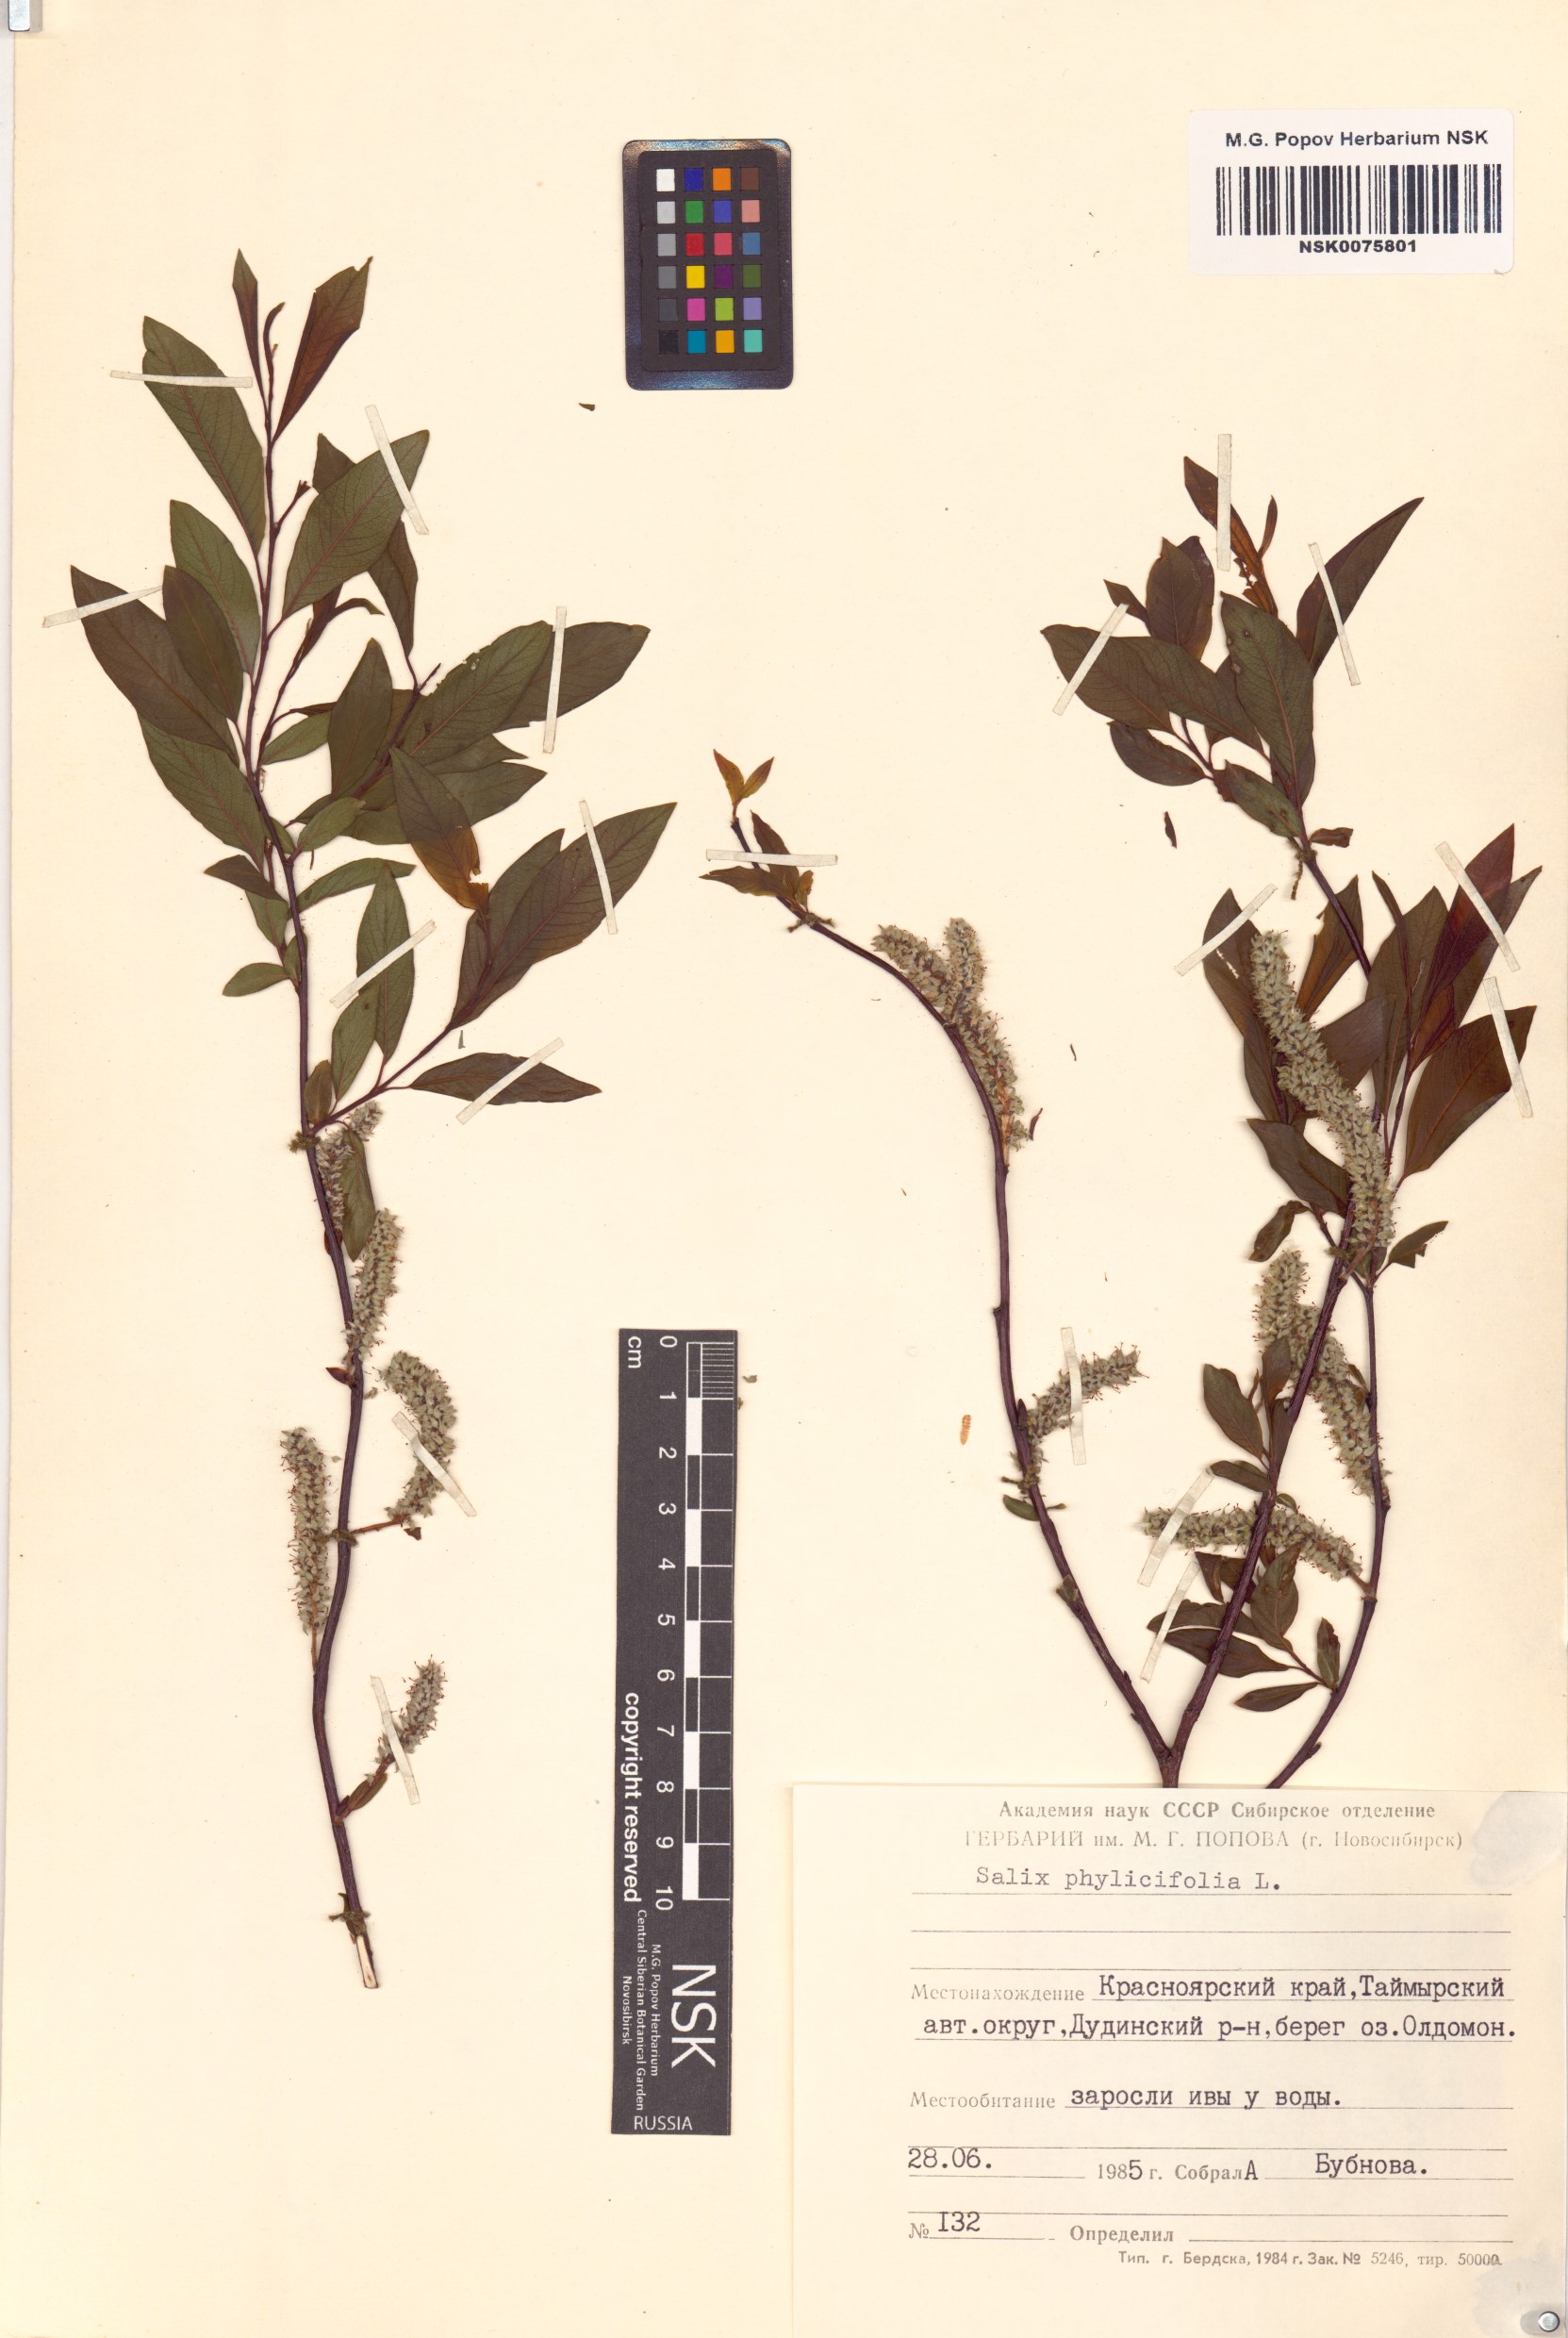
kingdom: Plantae
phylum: Tracheophyta
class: Magnoliopsida
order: Malpighiales
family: Salicaceae
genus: Salix
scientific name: Salix phylicifolia
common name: Tea-leaved willow
